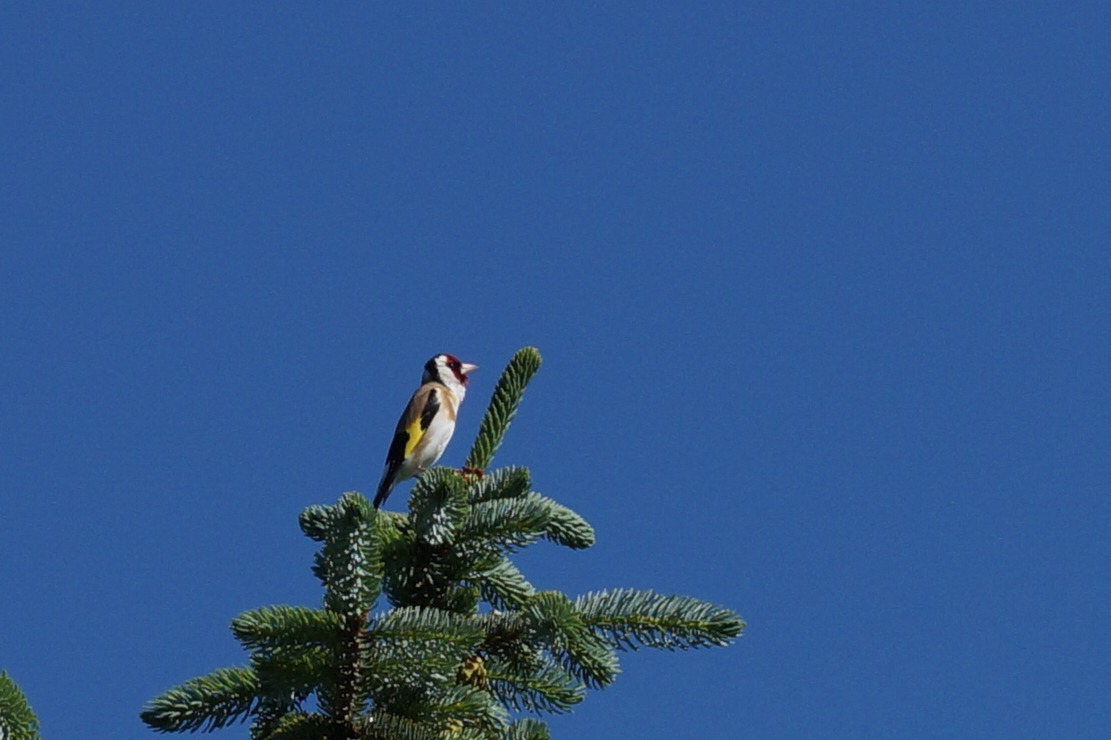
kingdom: Animalia
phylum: Chordata
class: Aves
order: Passeriformes
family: Fringillidae
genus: Carduelis
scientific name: Carduelis carduelis
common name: Stillits
